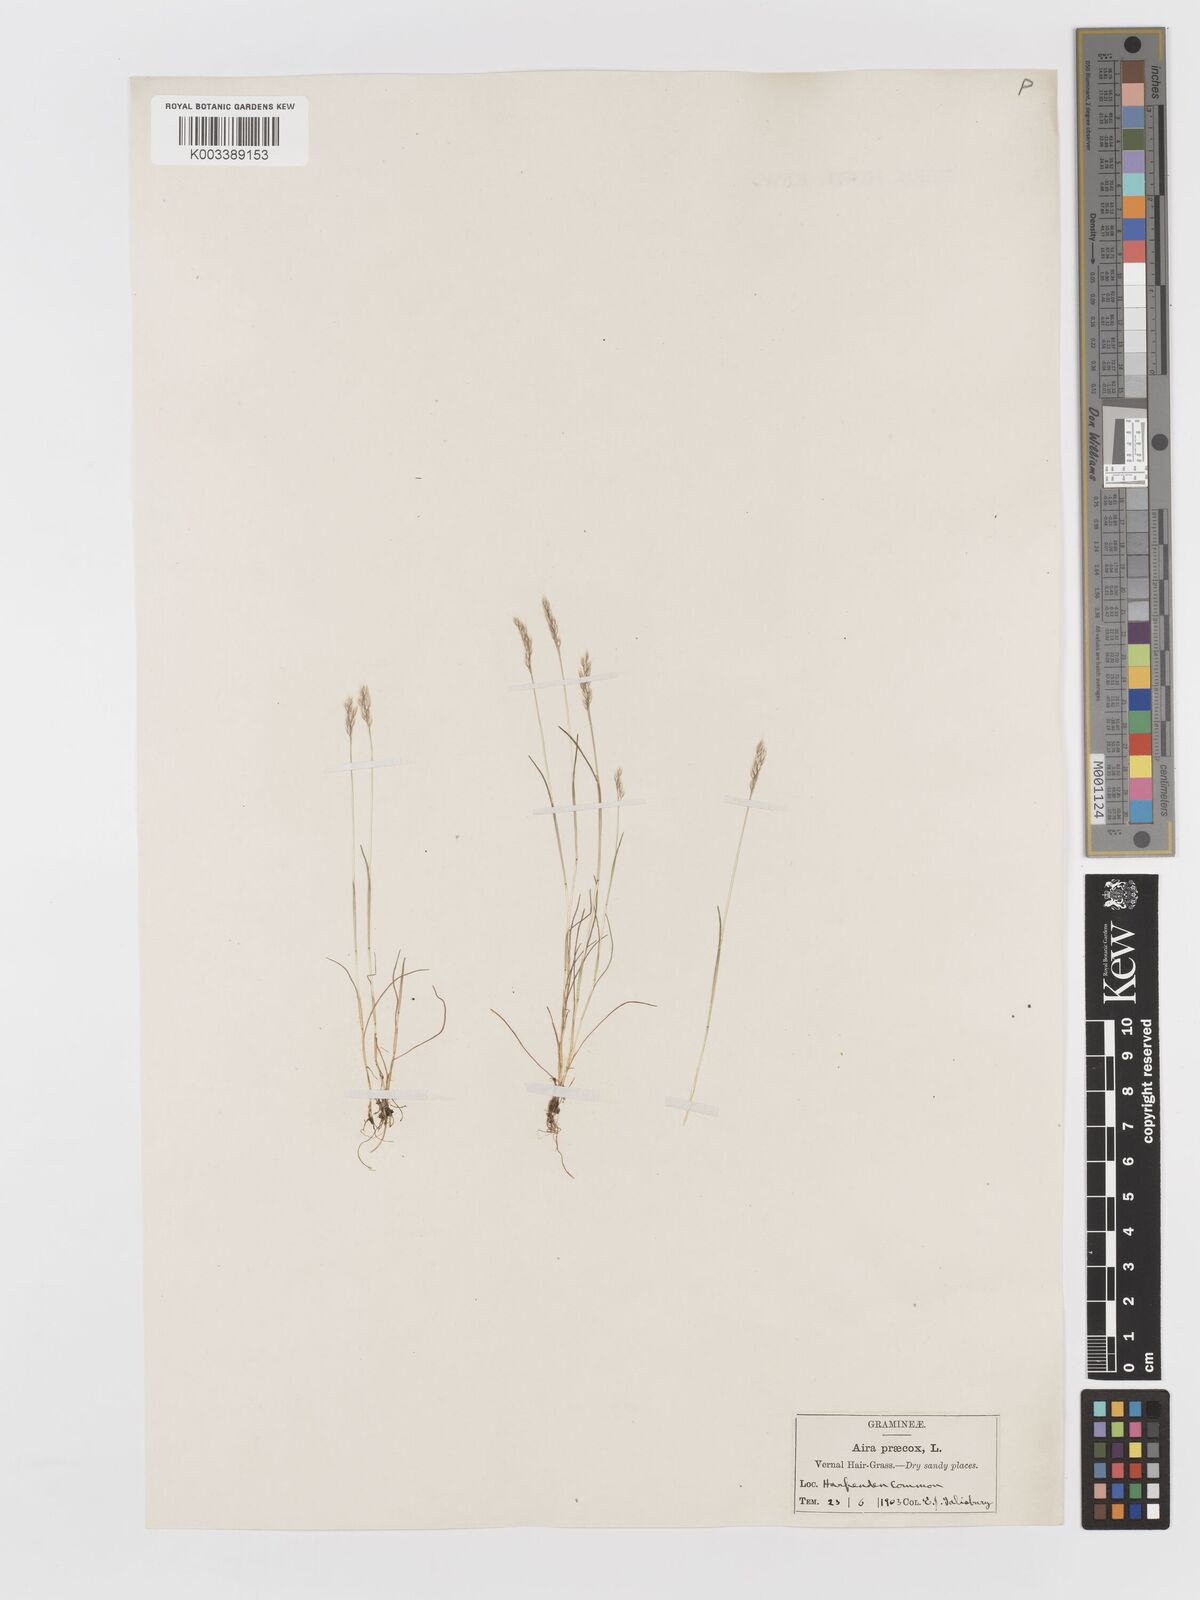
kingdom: Plantae
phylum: Tracheophyta
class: Liliopsida
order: Poales
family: Poaceae
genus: Aira
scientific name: Aira praecox
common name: Early hair-grass
